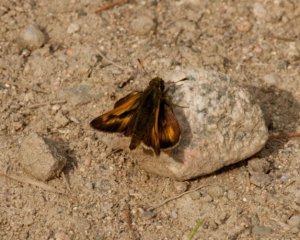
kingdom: Animalia
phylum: Arthropoda
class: Insecta
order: Lepidoptera
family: Hesperiidae
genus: Polites
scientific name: Polites
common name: Long Dash Skipper
